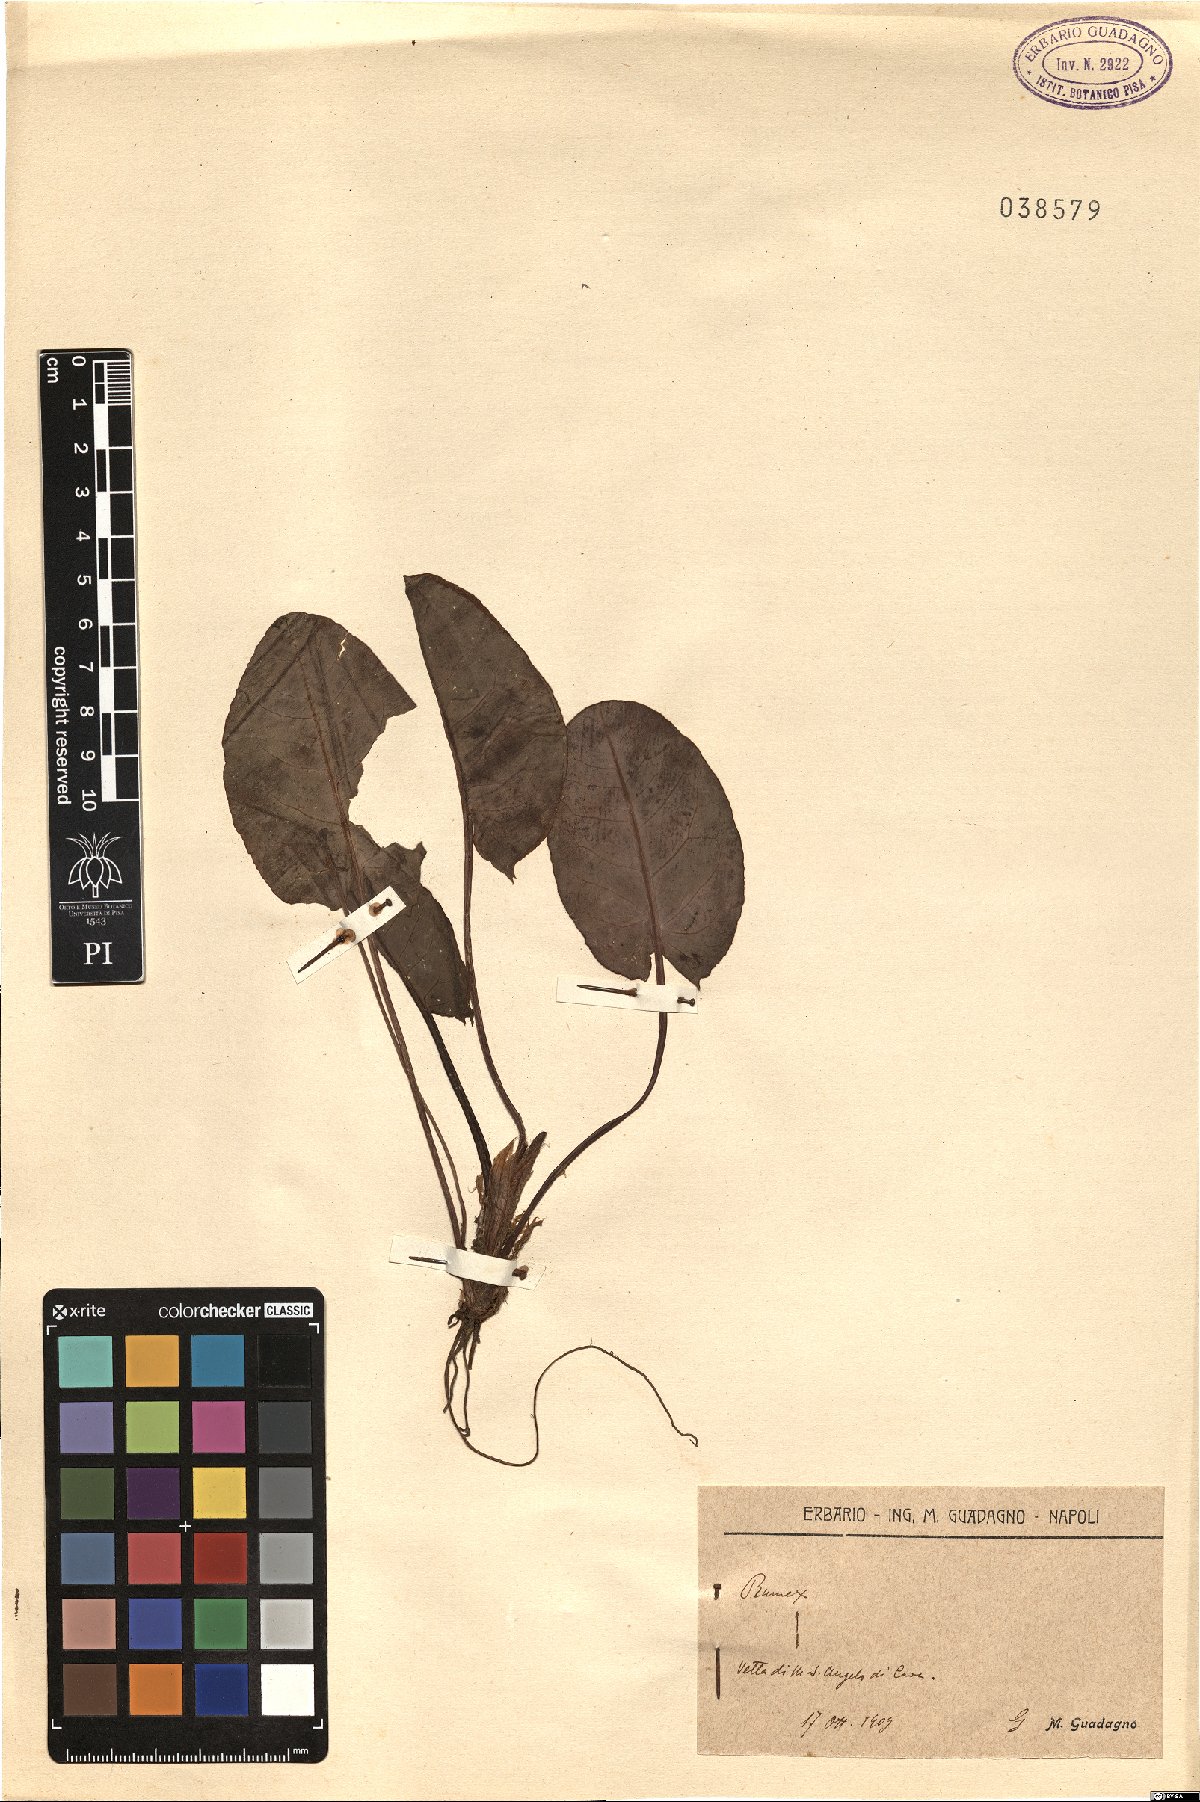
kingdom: Plantae
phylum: Tracheophyta
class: Magnoliopsida
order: Caryophyllales
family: Polygonaceae
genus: Rumex
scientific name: Rumex
